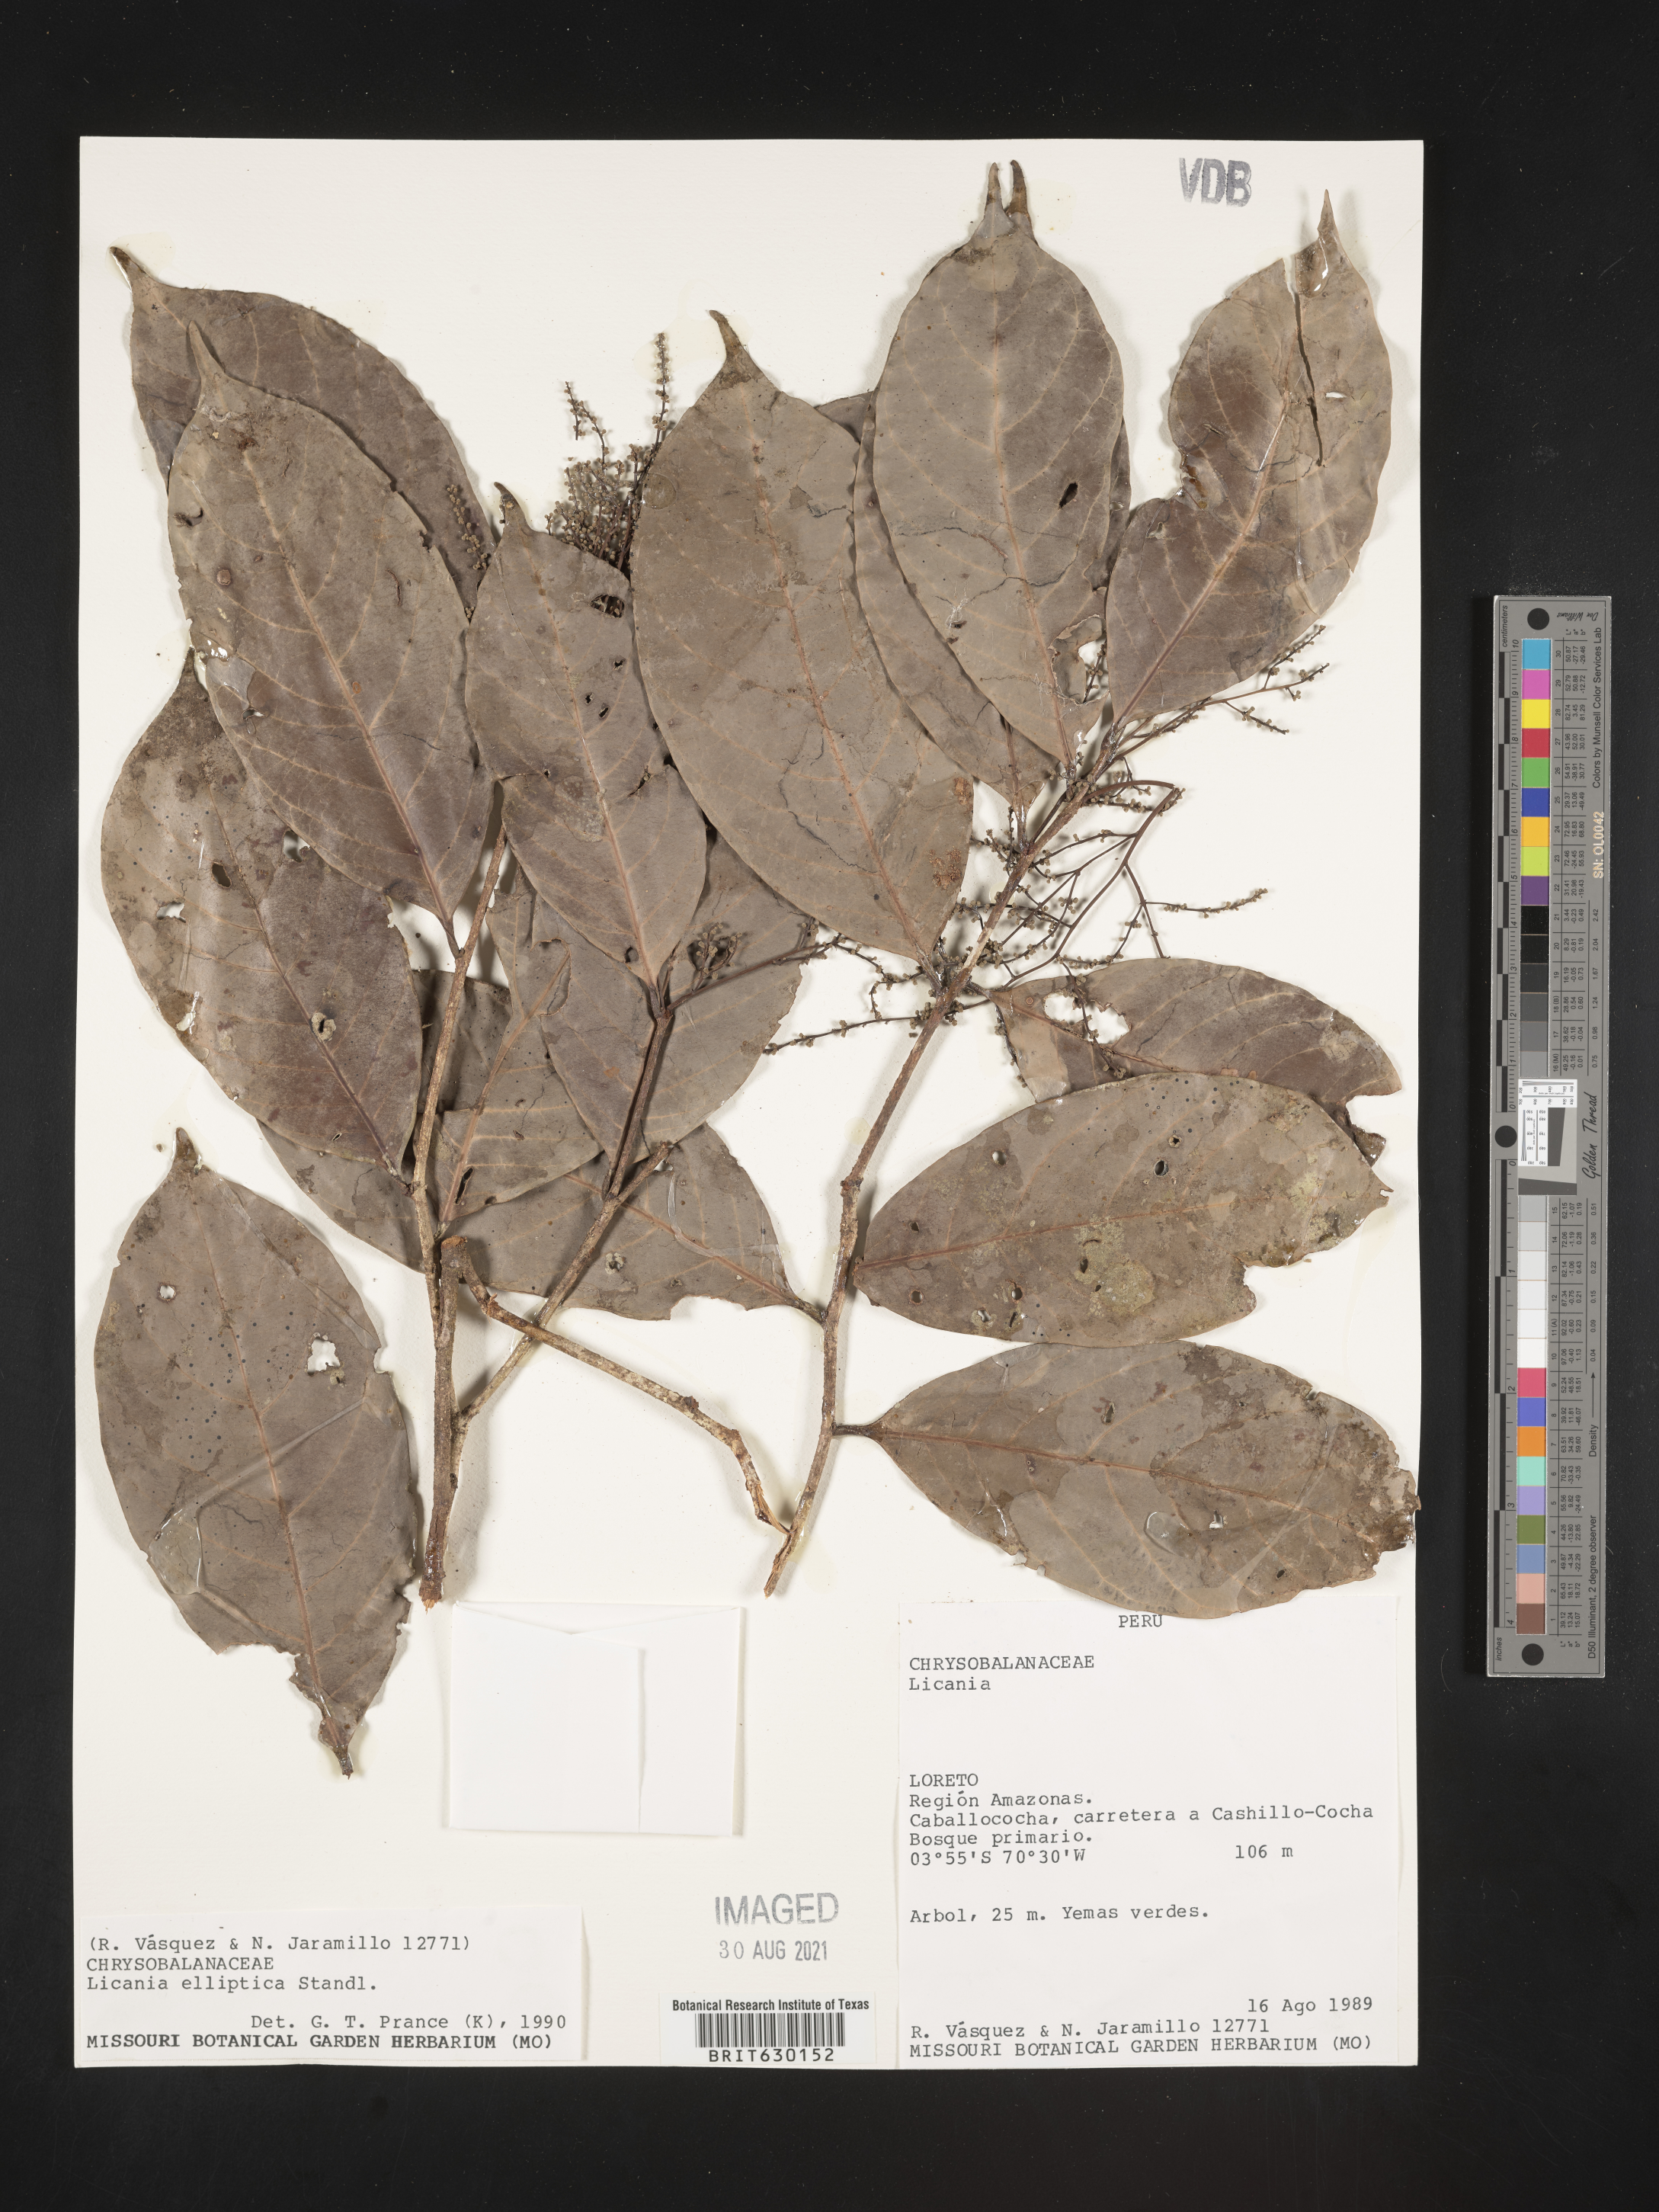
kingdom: Plantae
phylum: Tracheophyta
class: Magnoliopsida
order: Malpighiales
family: Chrysobalanaceae
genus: Licania
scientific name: Licania elliptica
